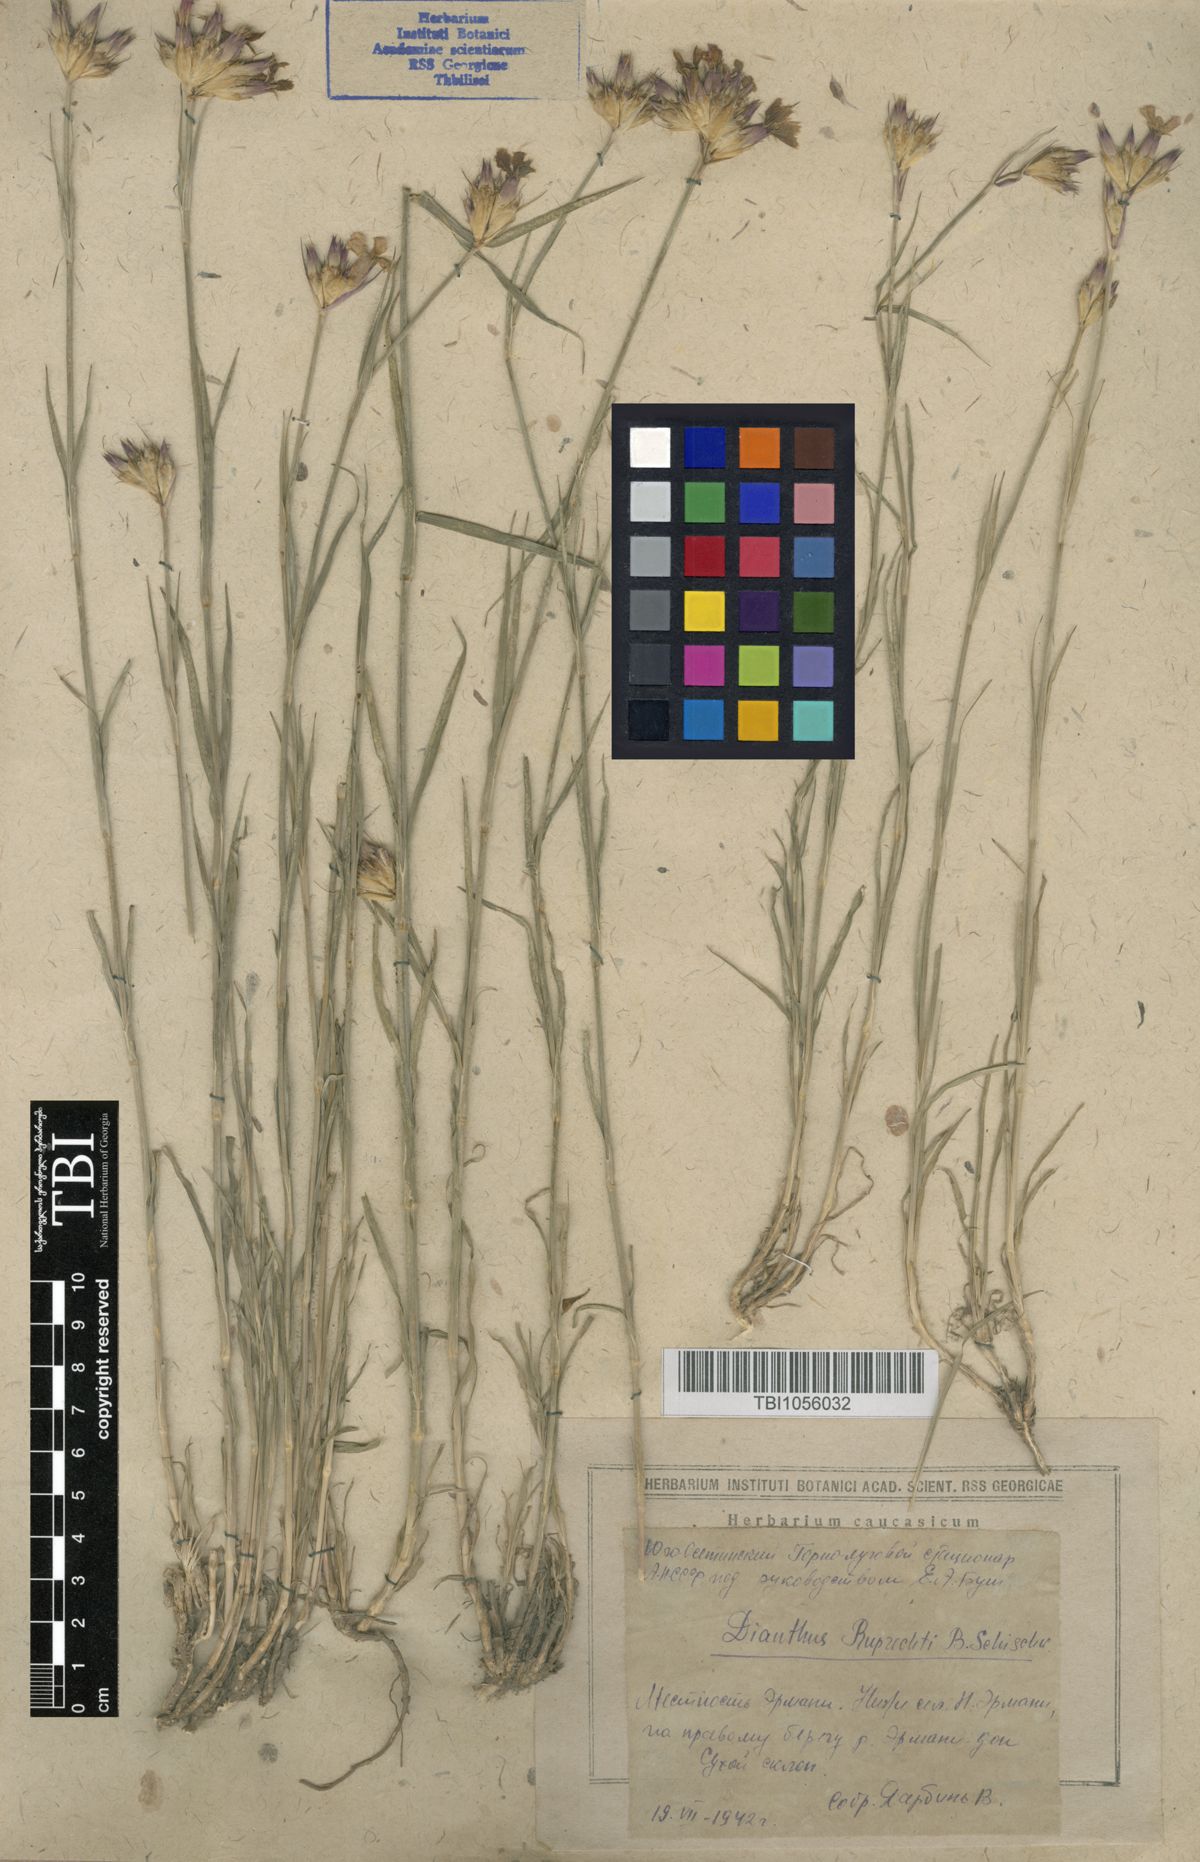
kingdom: Plantae
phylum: Tracheophyta
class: Magnoliopsida
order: Caryophyllales
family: Caryophyllaceae
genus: Dianthus
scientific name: Dianthus ruprechtii
